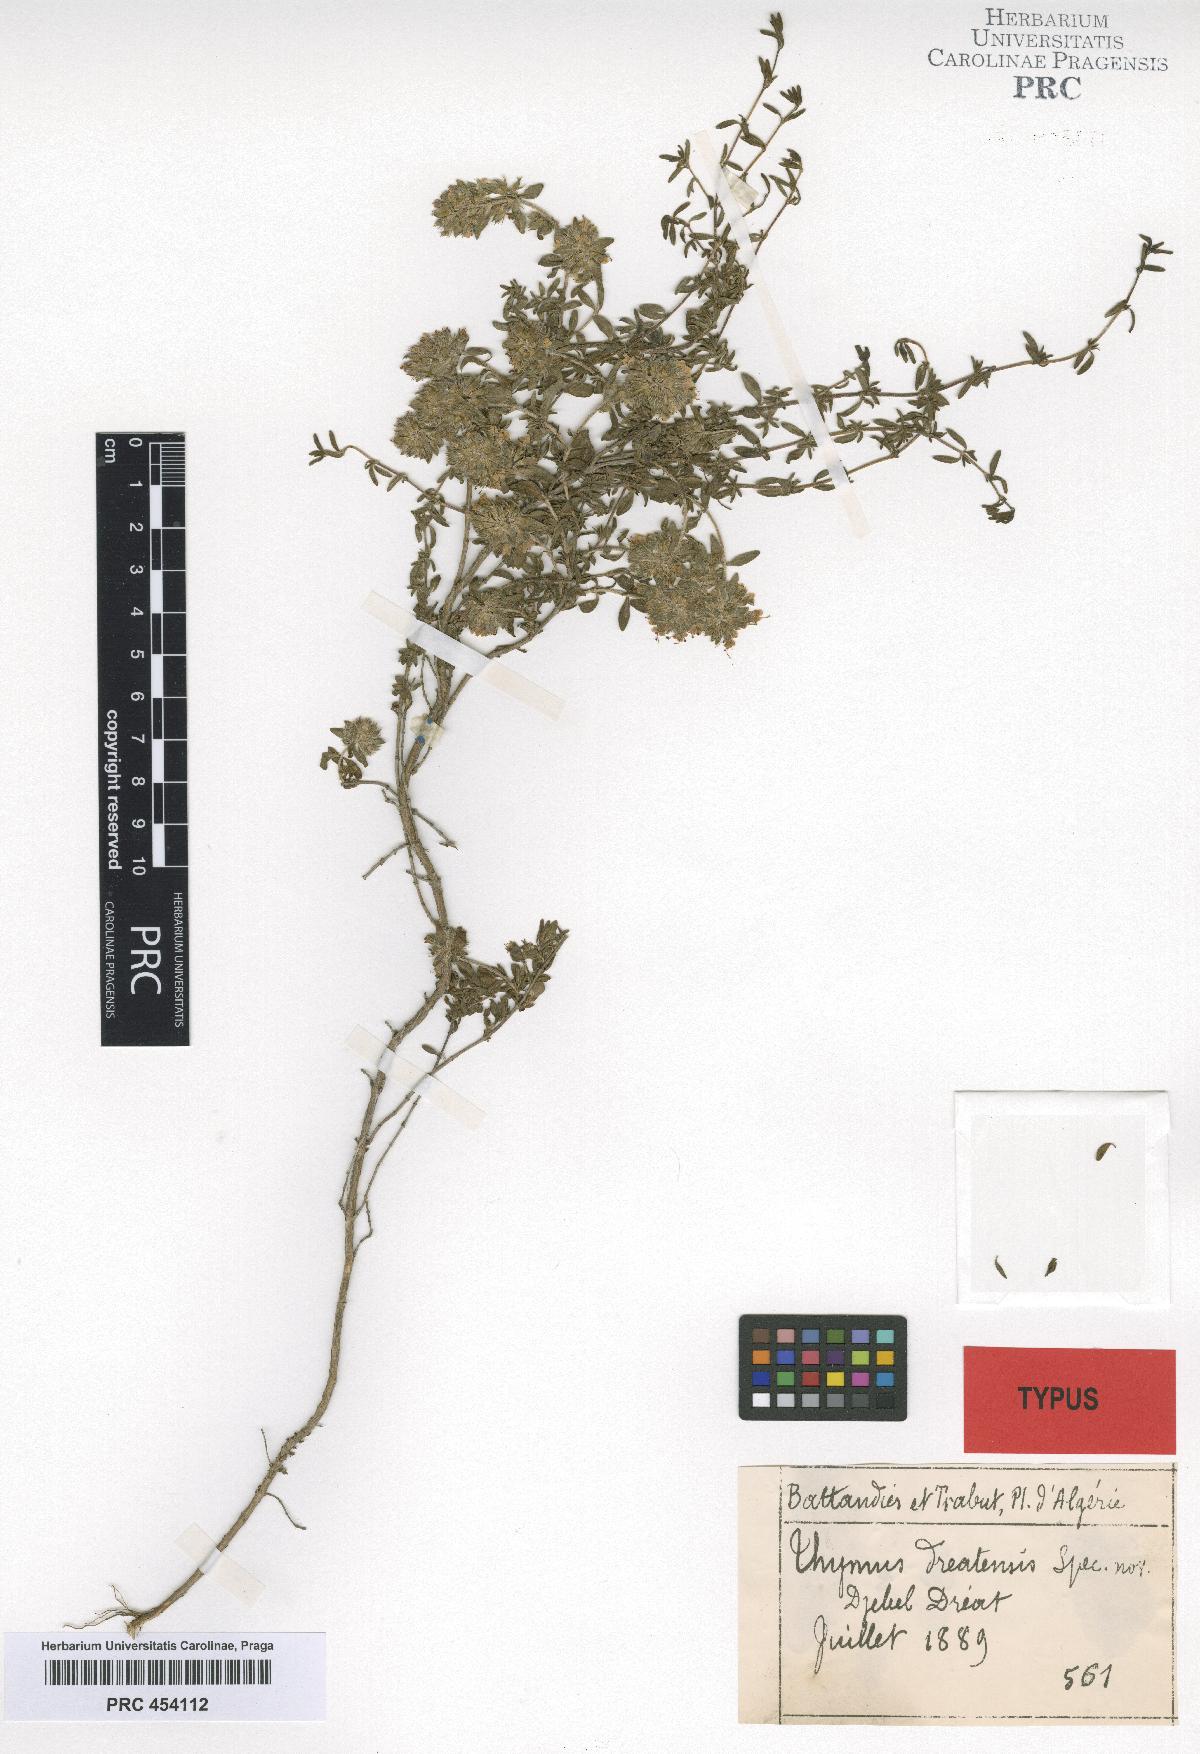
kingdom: Plantae
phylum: Tracheophyta
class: Magnoliopsida
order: Lamiales
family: Lamiaceae
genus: Thymus
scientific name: Thymus dreatensis
